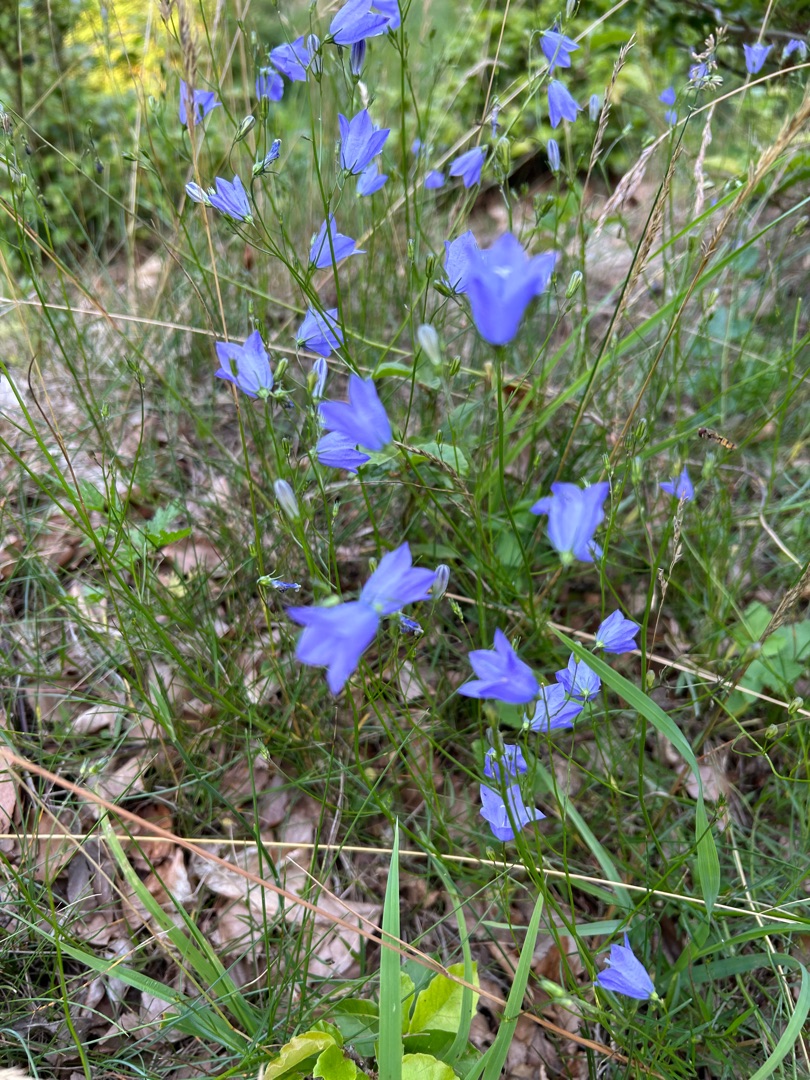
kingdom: Plantae
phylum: Tracheophyta
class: Magnoliopsida
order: Asterales
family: Campanulaceae
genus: Campanula
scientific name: Campanula rotundifolia
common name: Liden klokke
